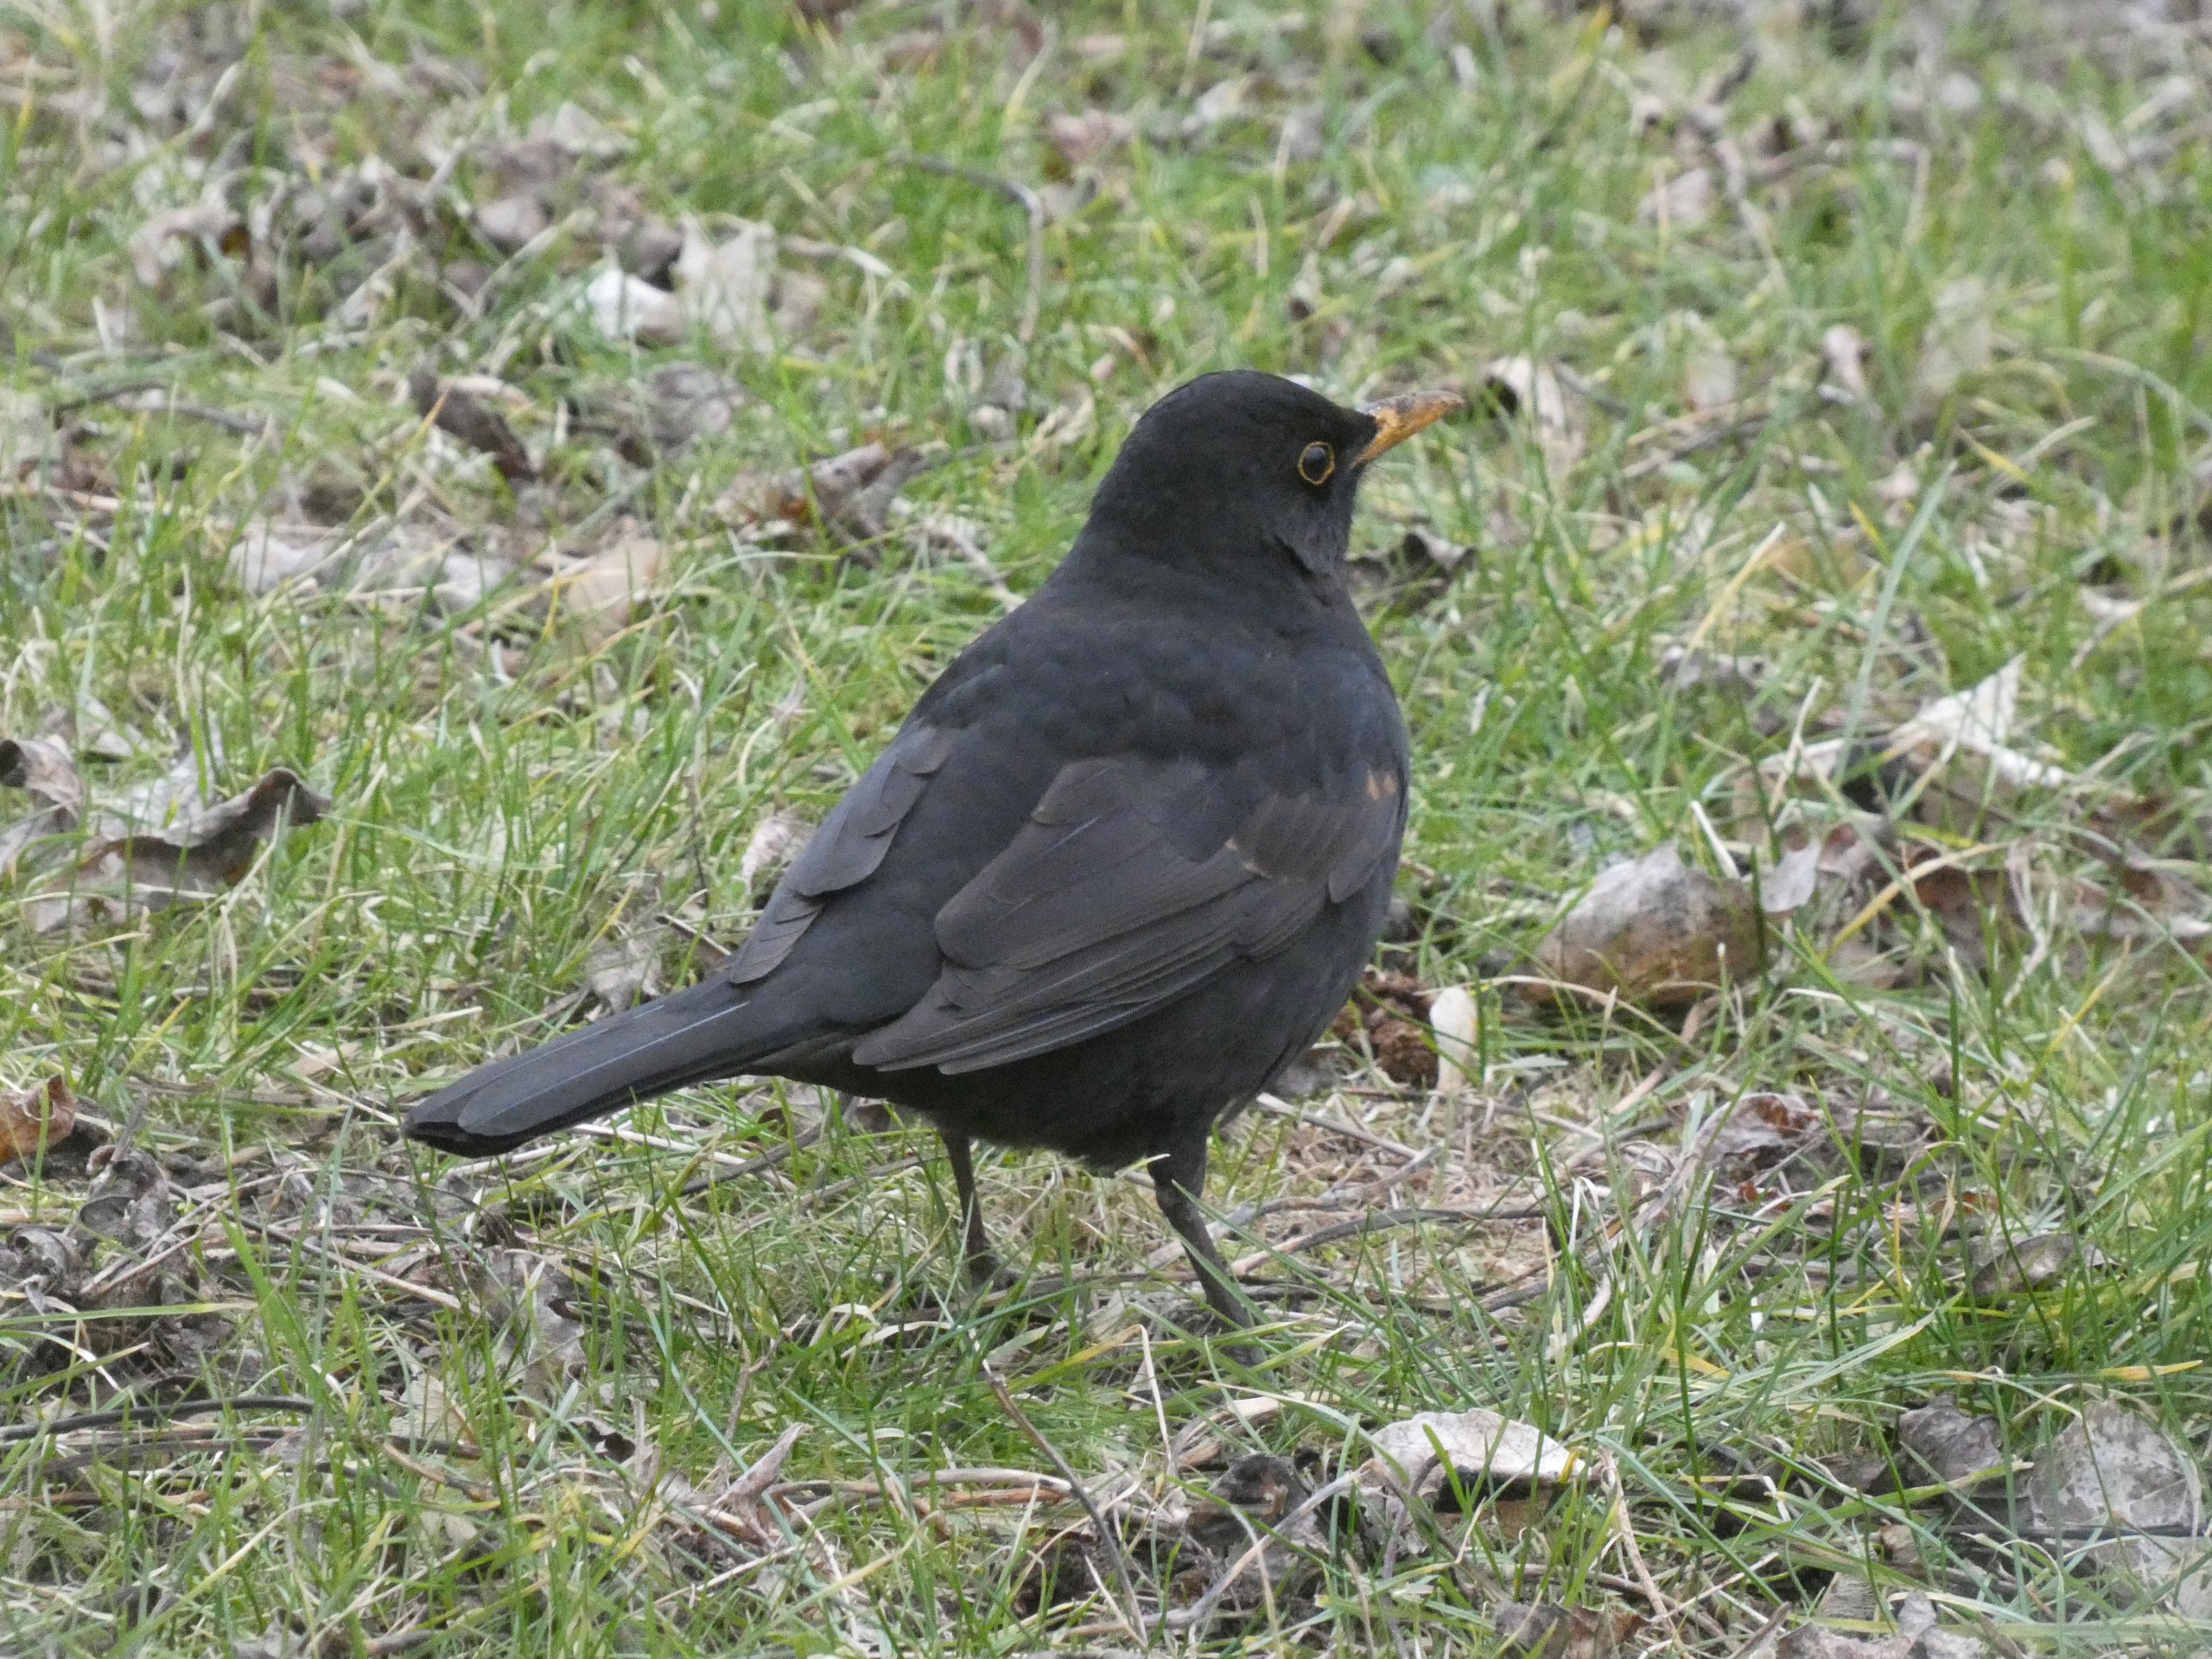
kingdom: Animalia
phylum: Chordata
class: Aves
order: Passeriformes
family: Turdidae
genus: Turdus
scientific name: Turdus merula
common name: Solsort
